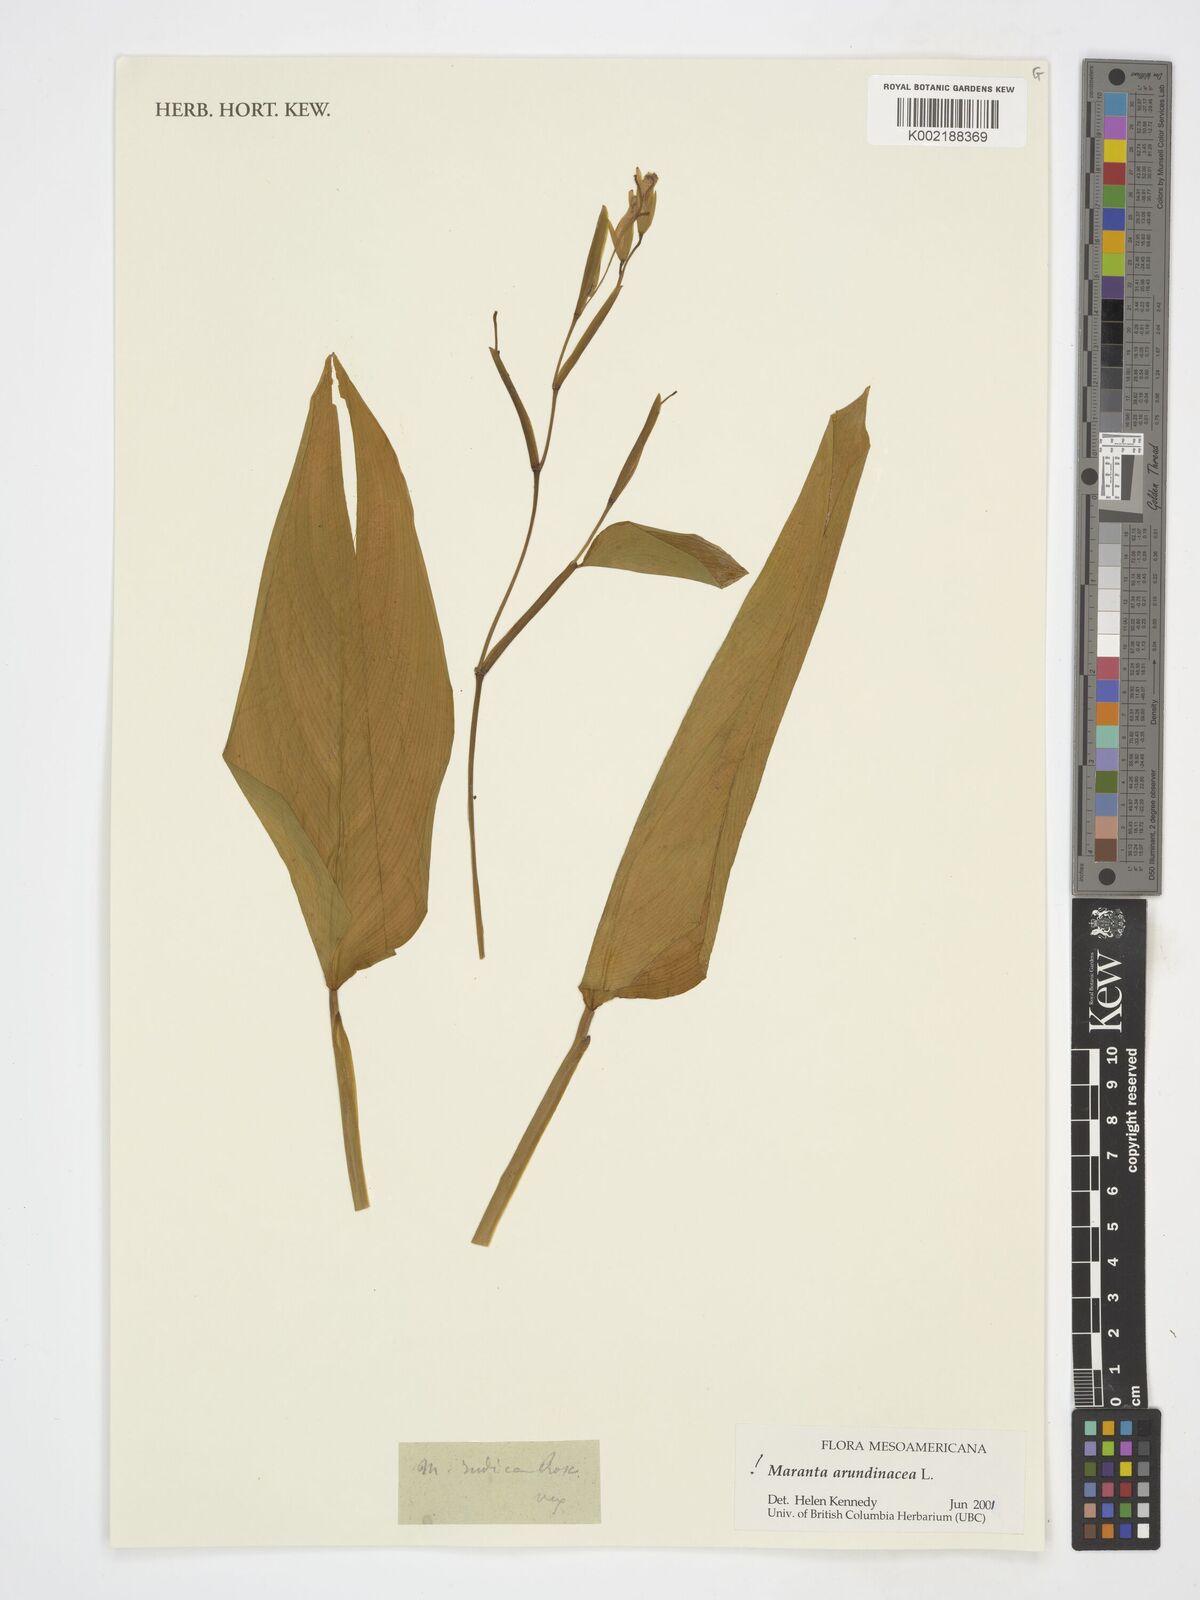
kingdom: Plantae
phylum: Tracheophyta
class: Liliopsida
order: Zingiberales
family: Marantaceae
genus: Maranta
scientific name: Maranta arundinacea
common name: Arrowroot
